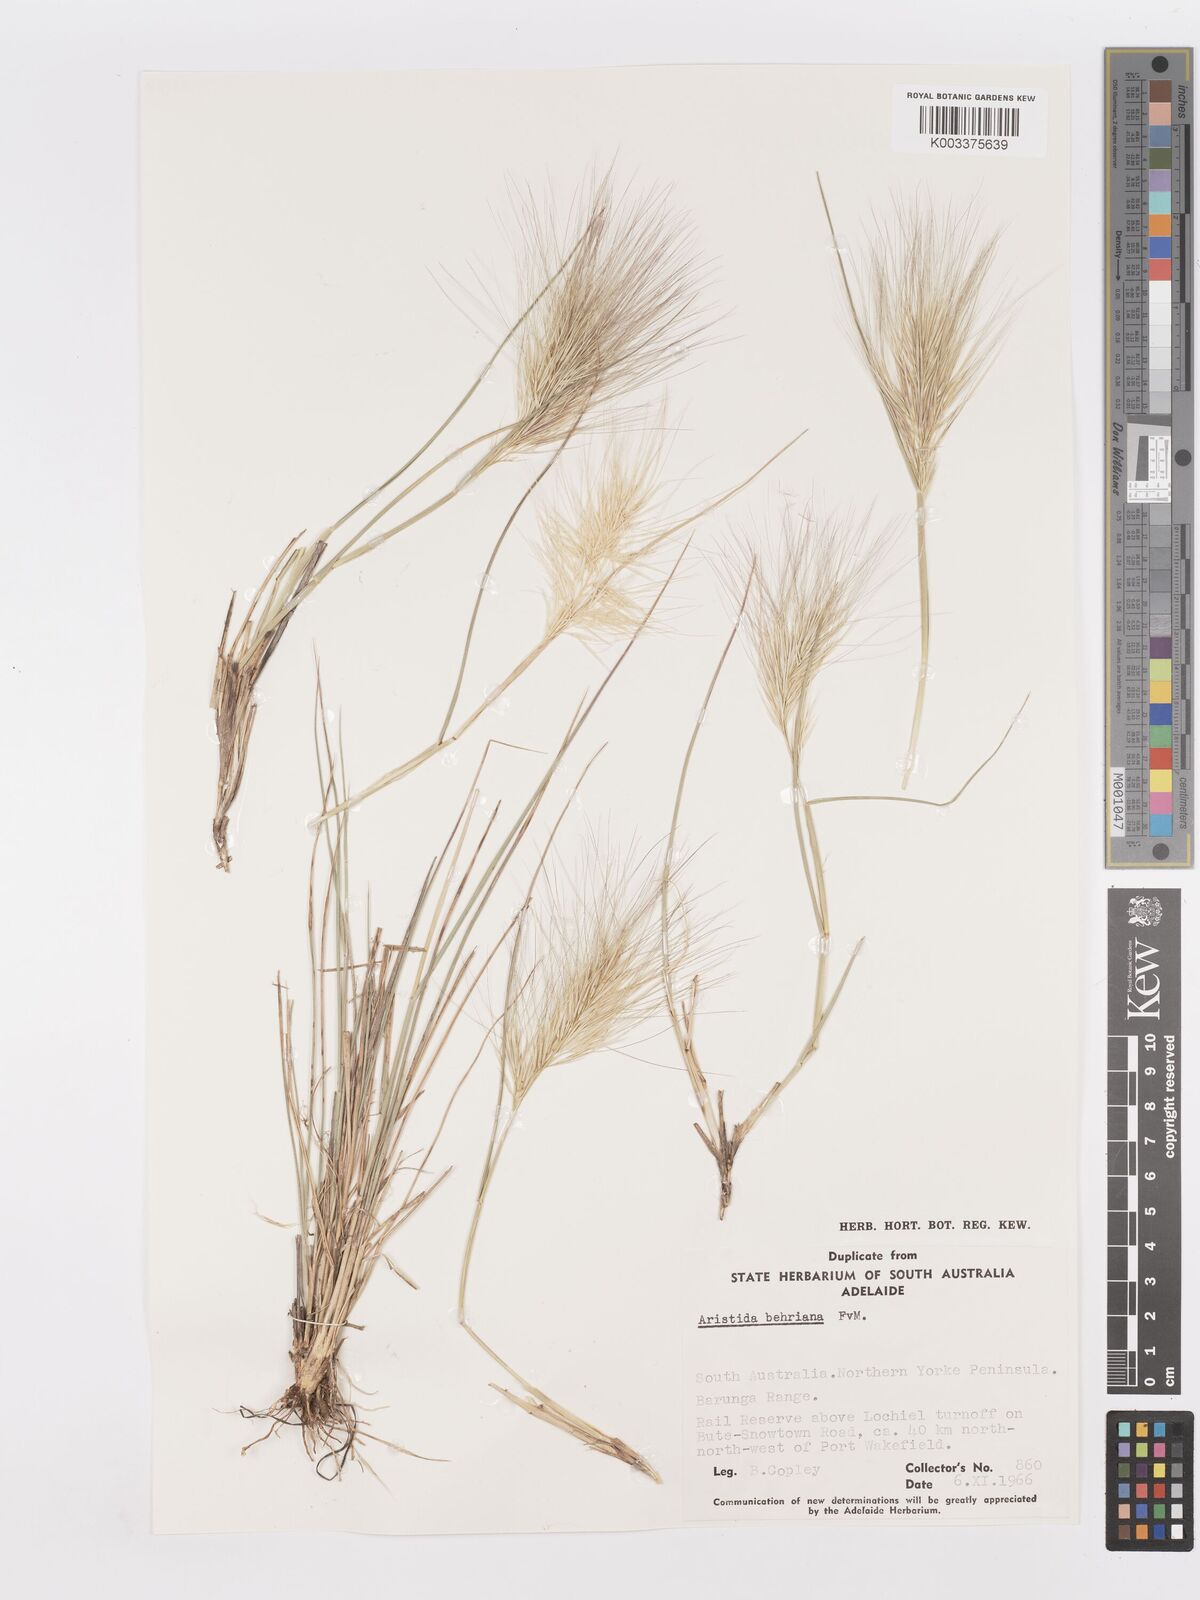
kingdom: Plantae
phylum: Tracheophyta
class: Liliopsida
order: Poales
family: Poaceae
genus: Aristida
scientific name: Aristida behriana
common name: Long-awn wire grass
